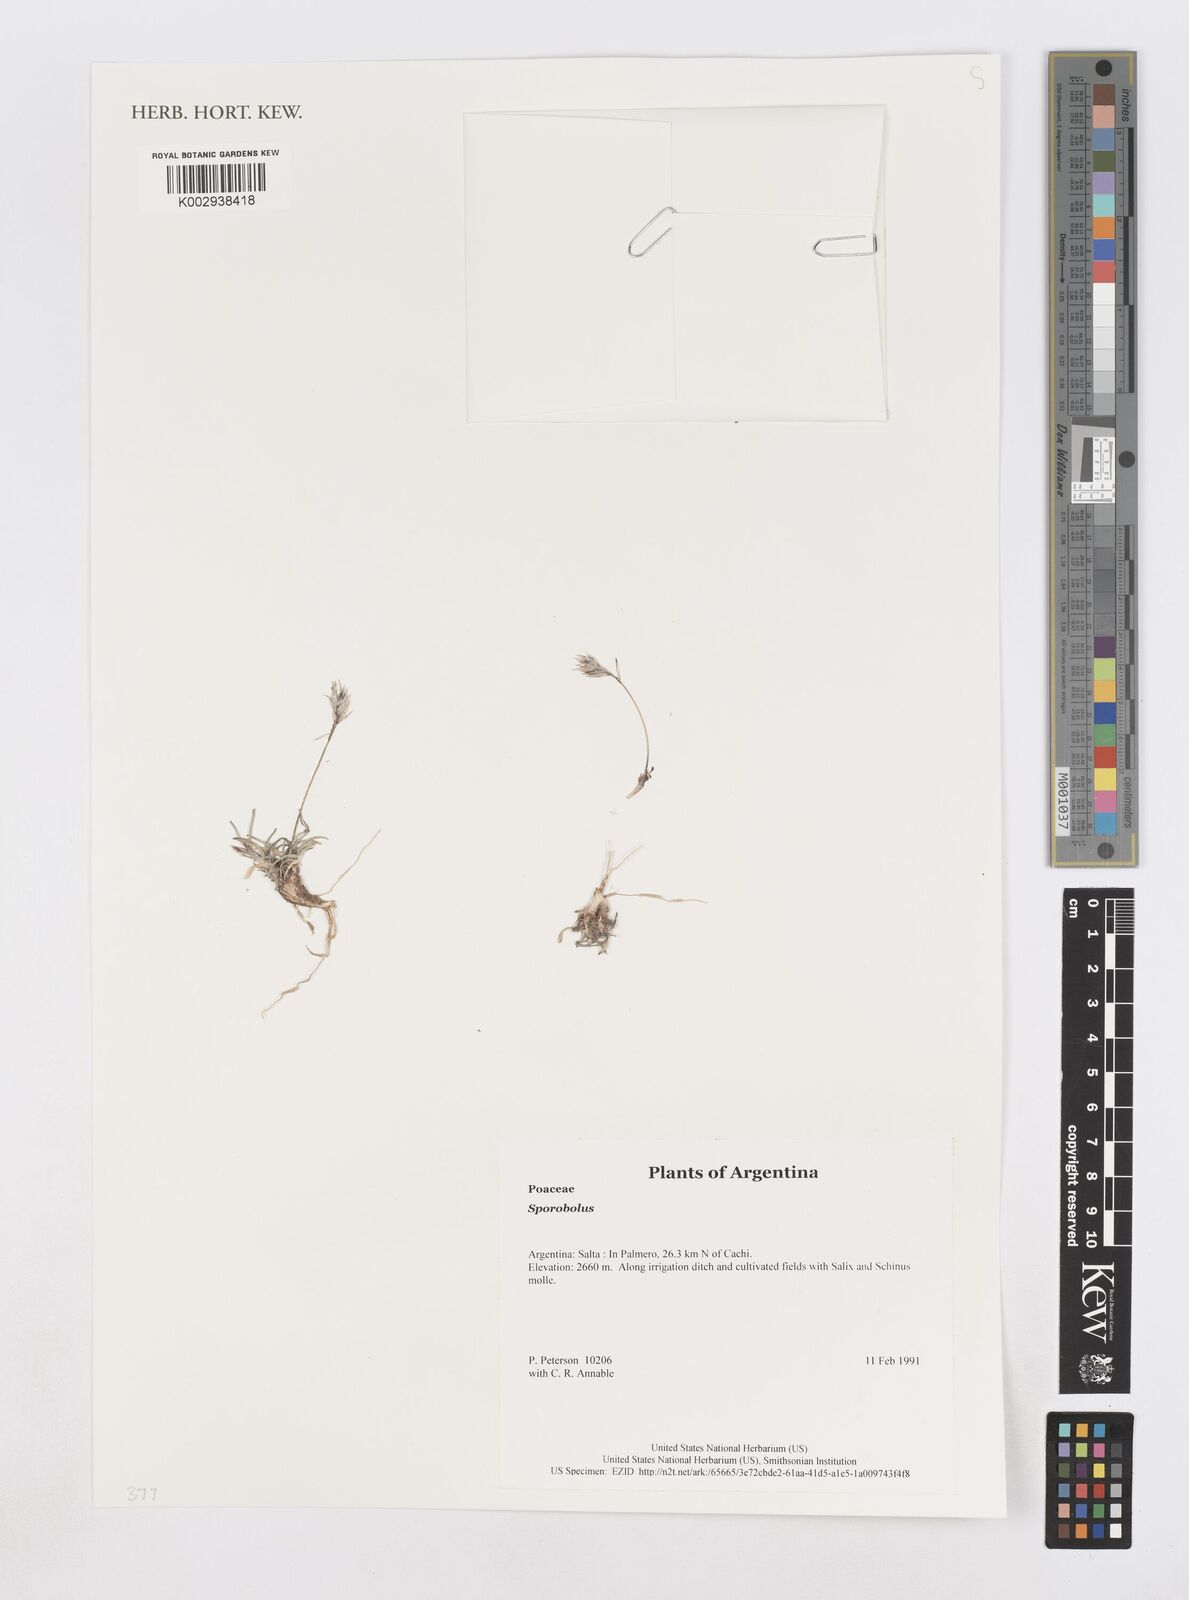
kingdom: Plantae
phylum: Tracheophyta
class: Liliopsida
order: Poales
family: Poaceae
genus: Sporobolus
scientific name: Sporobolus
